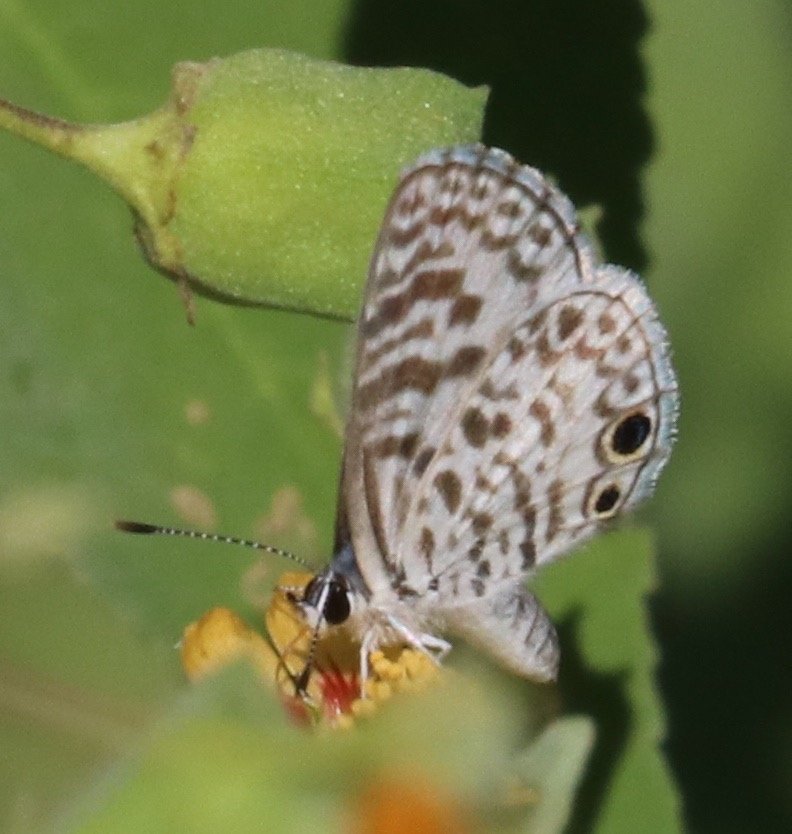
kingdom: Animalia
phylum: Arthropoda
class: Insecta
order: Lepidoptera
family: Lycaenidae
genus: Leptotes
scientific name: Leptotes cassius
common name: Cassius Blue
